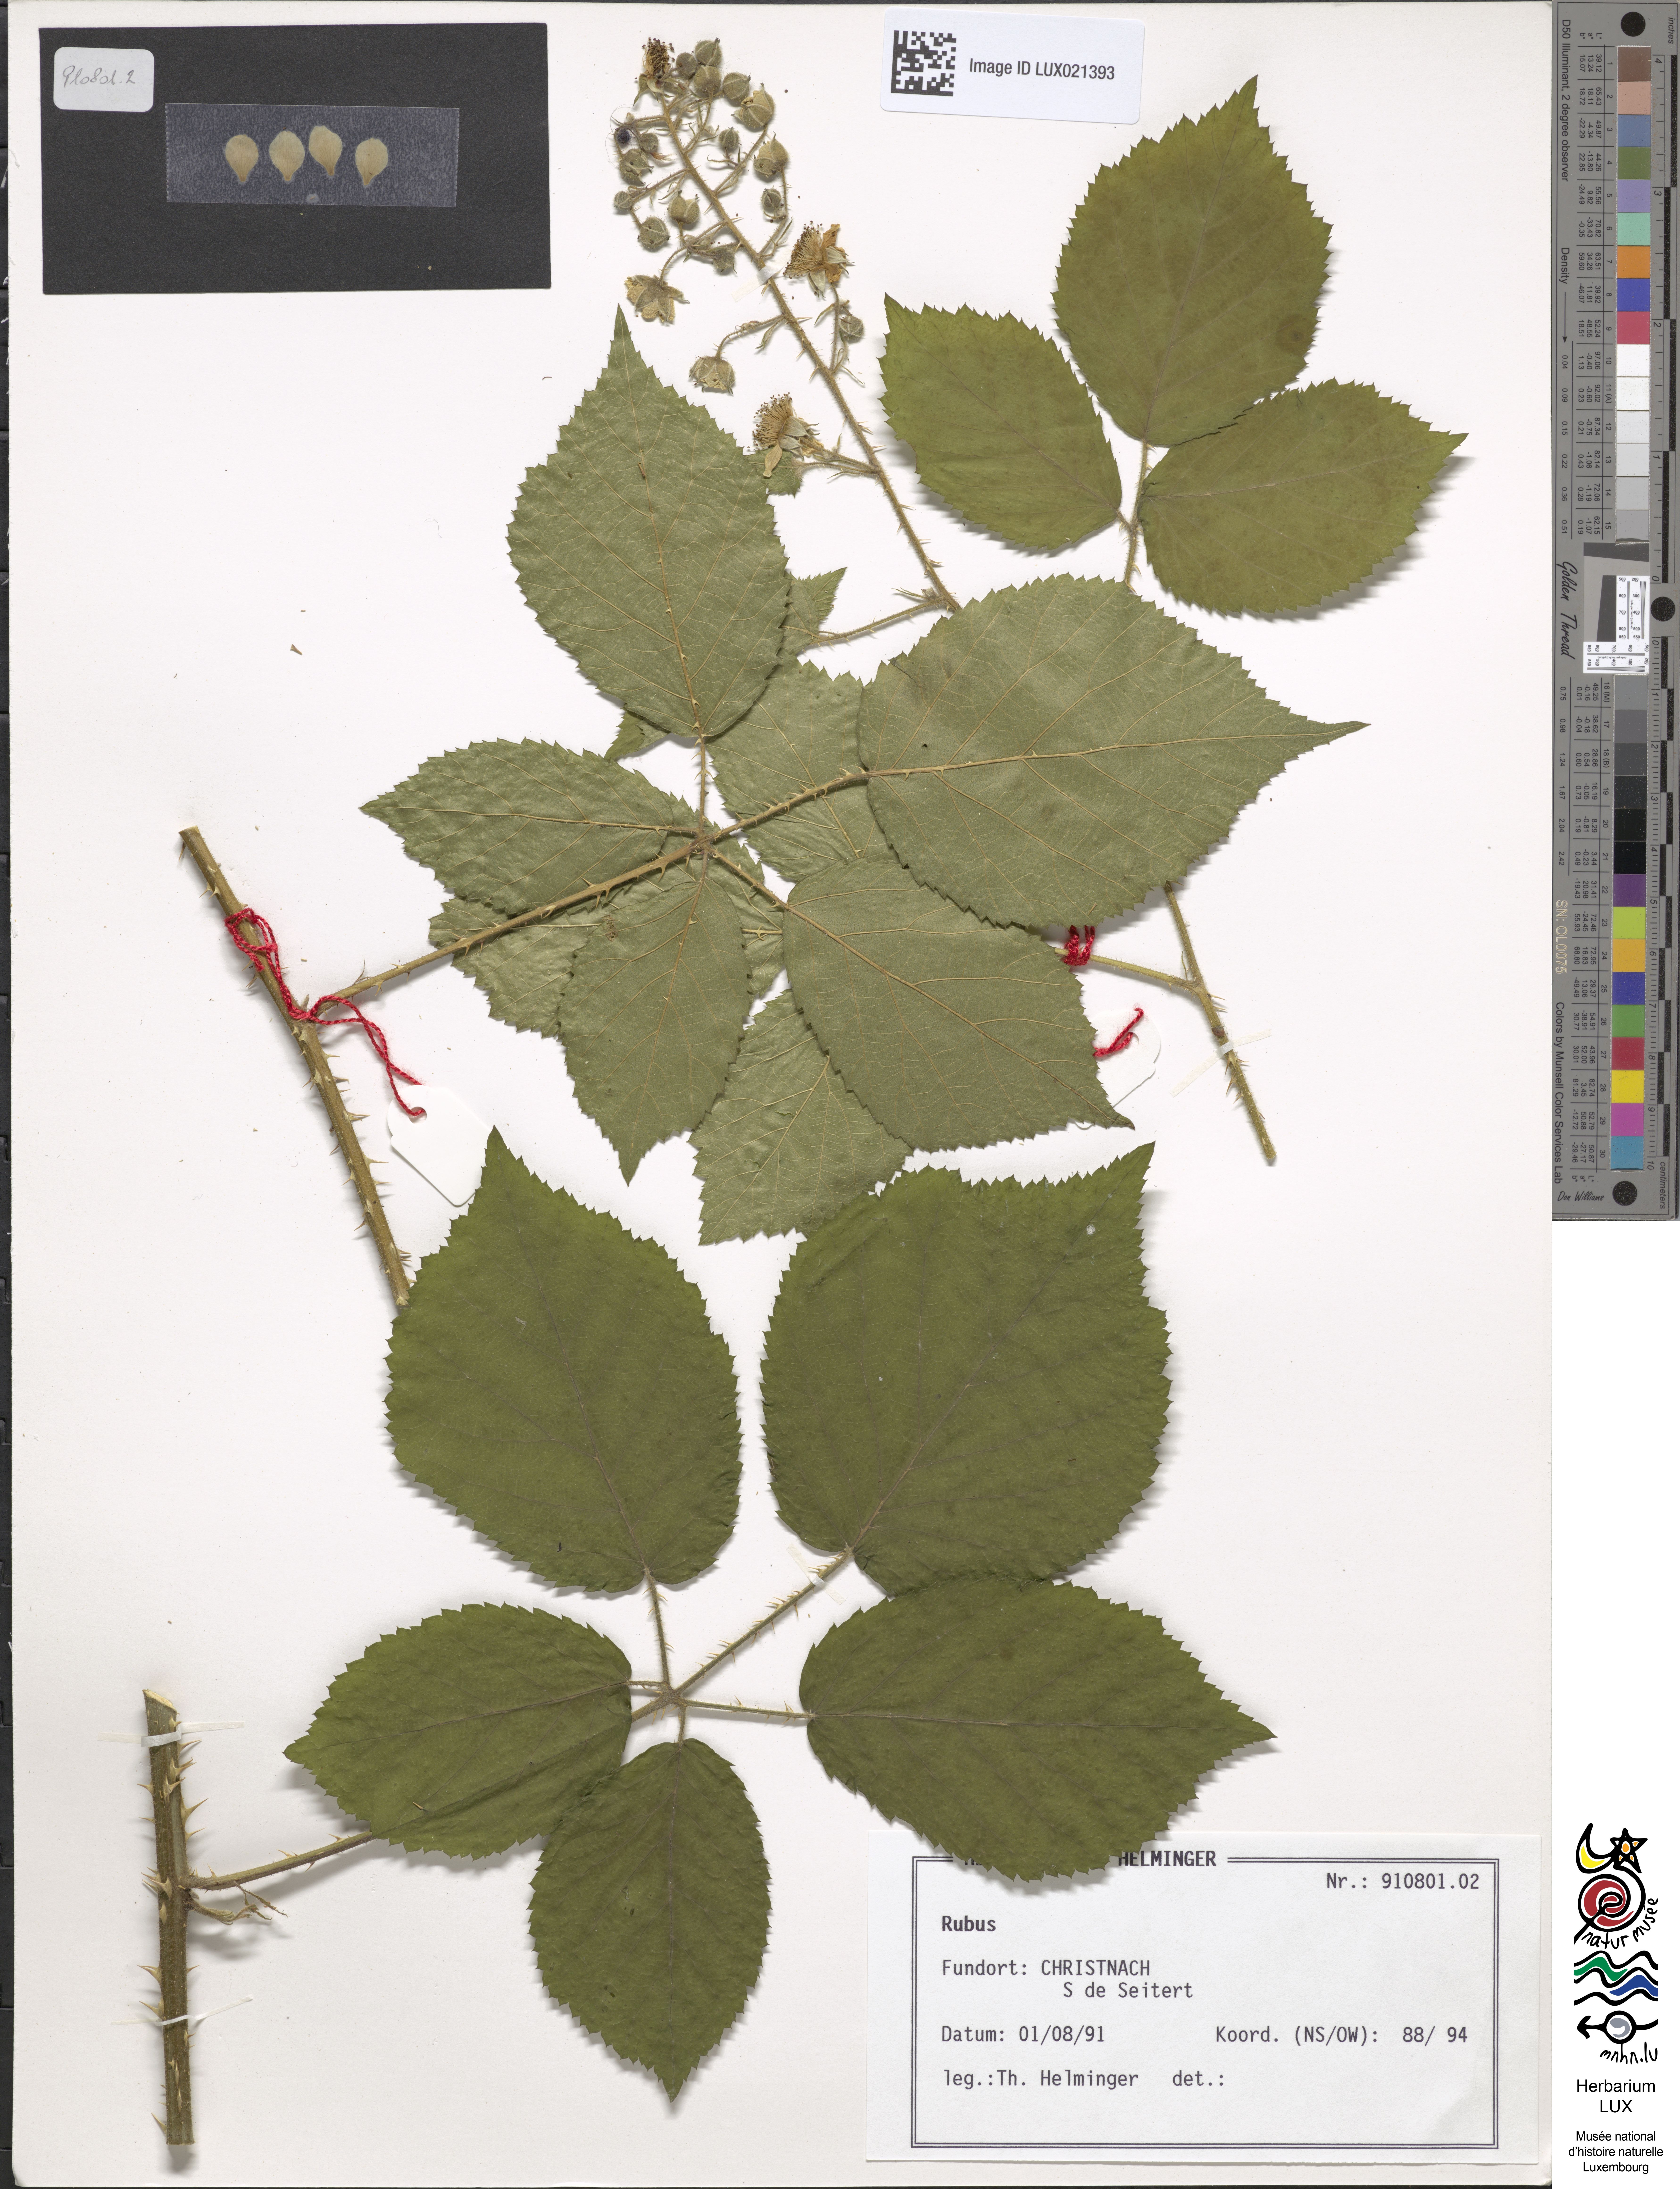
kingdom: Plantae
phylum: Tracheophyta
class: Magnoliopsida
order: Rosales
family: Rosaceae
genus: Rubus
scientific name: Rubus
